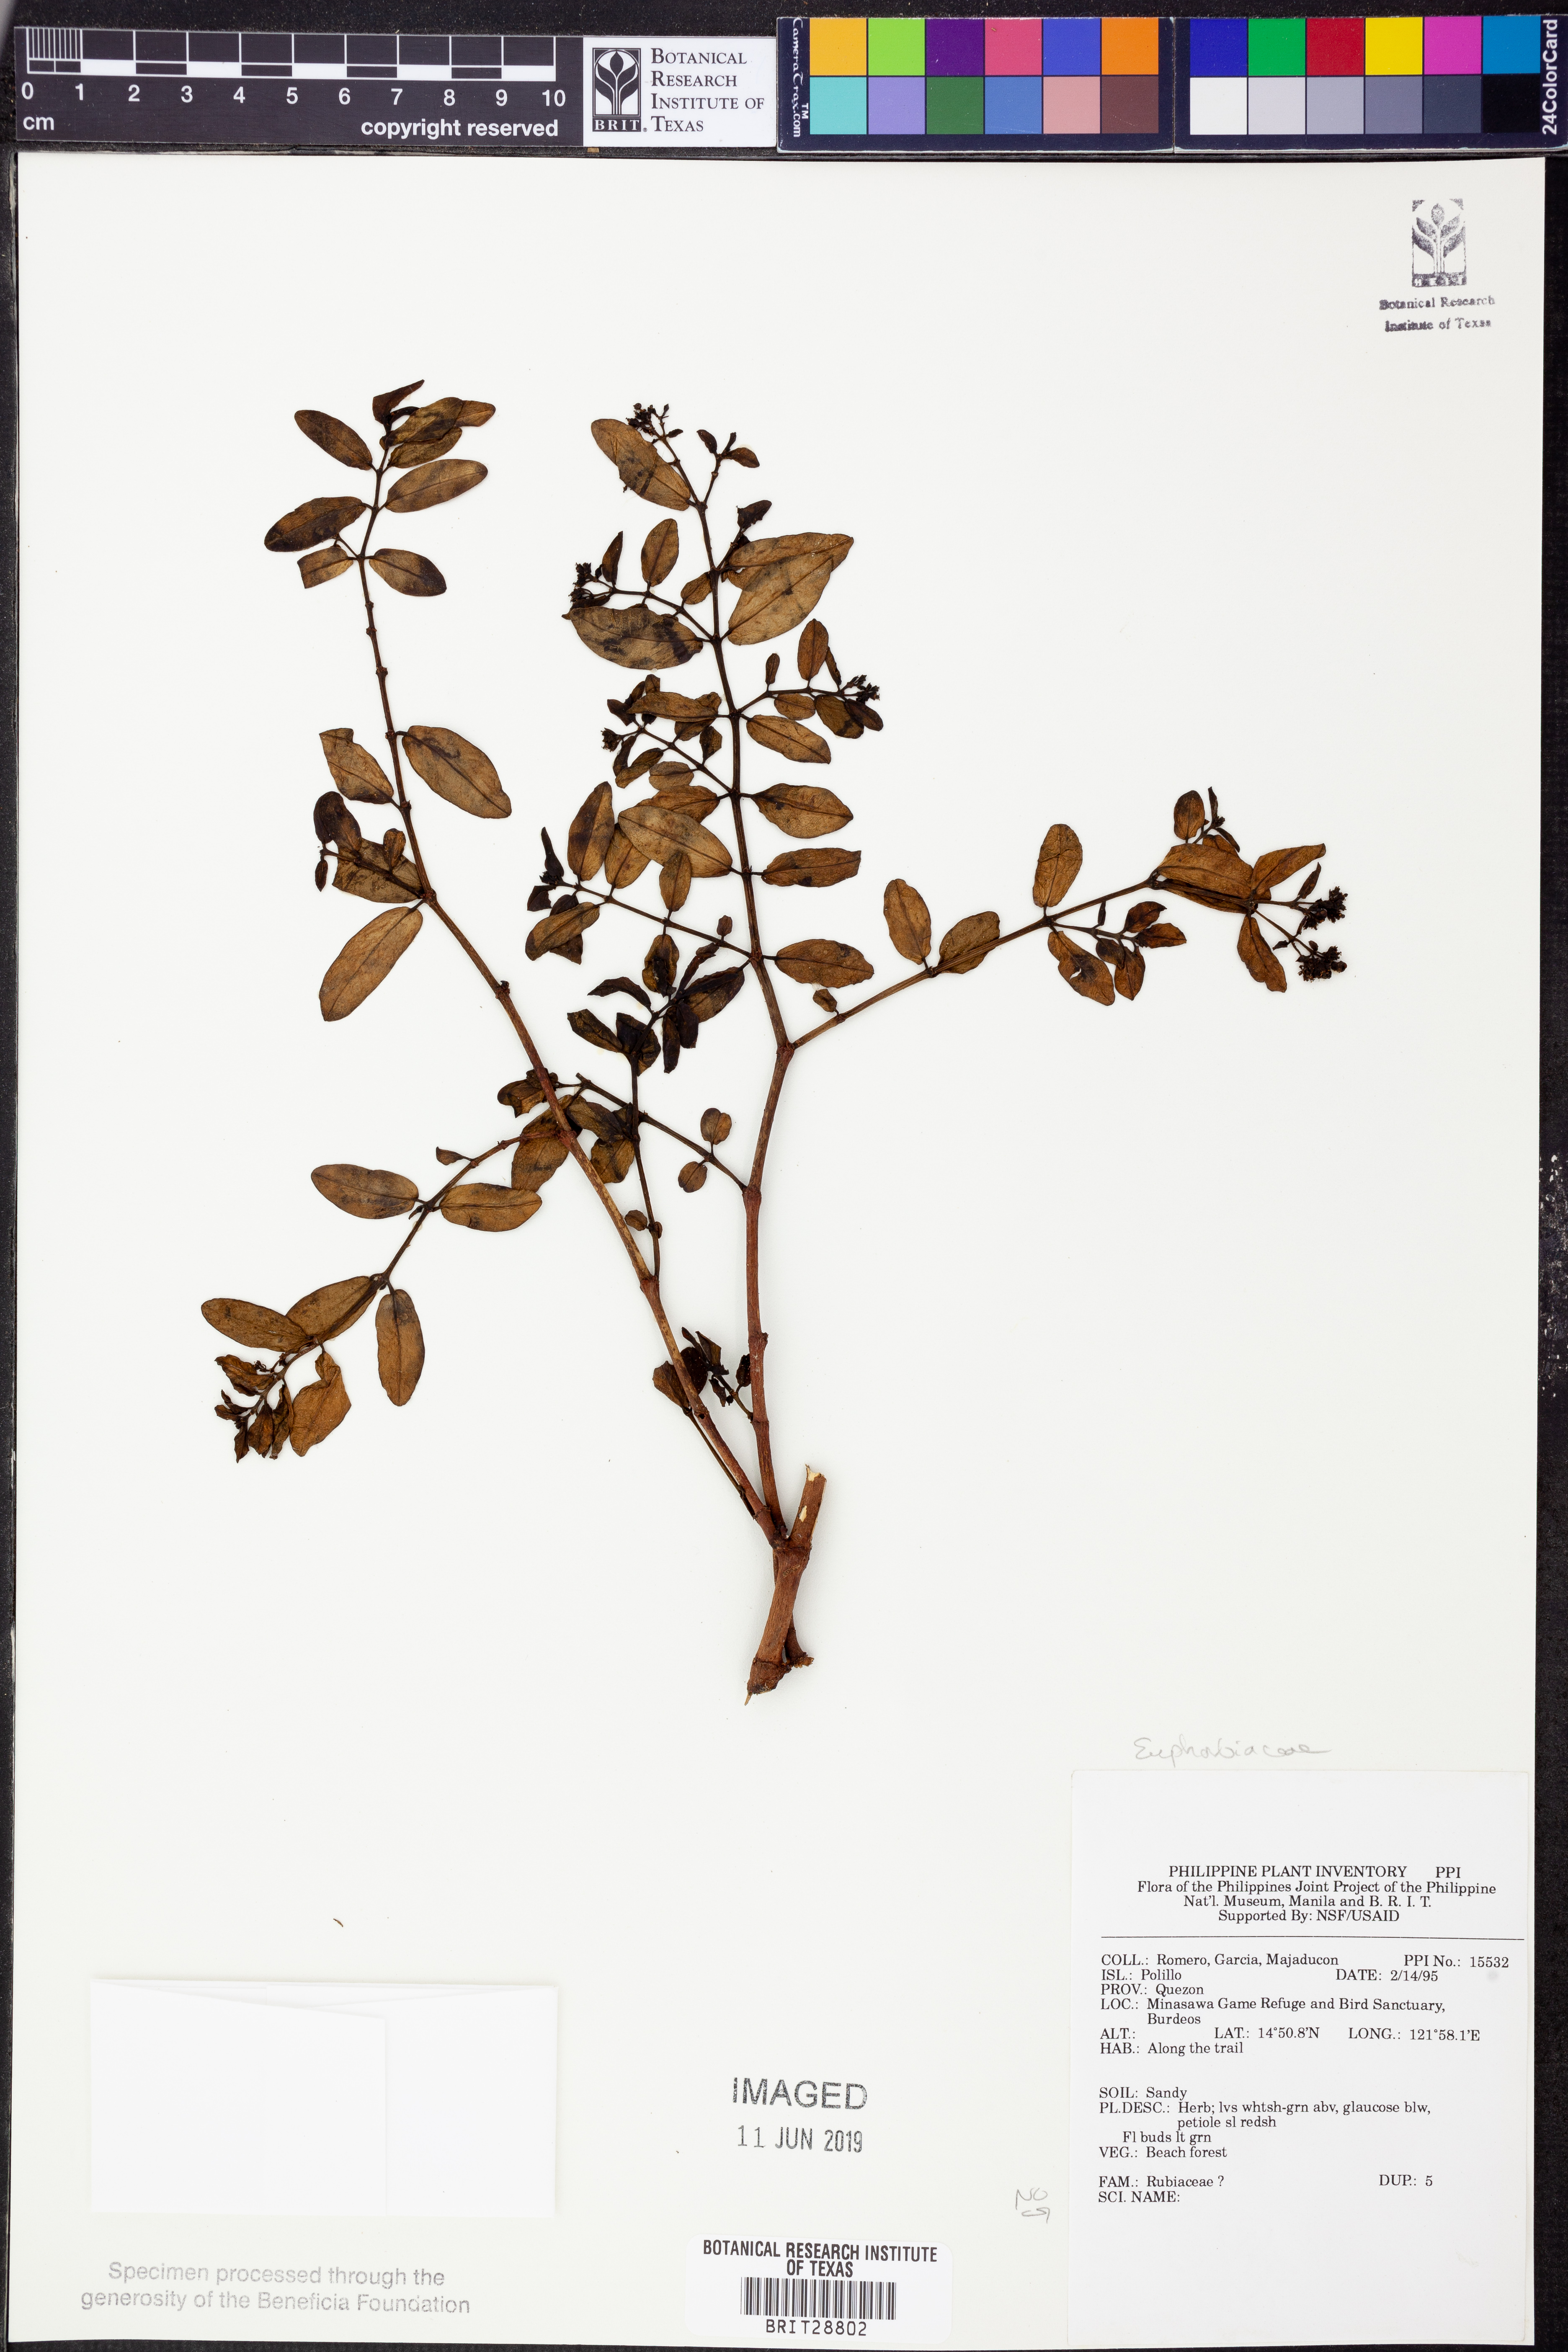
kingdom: Plantae
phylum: Tracheophyta
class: Magnoliopsida
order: Malpighiales
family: Euphorbiaceae
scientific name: Euphorbiaceae
